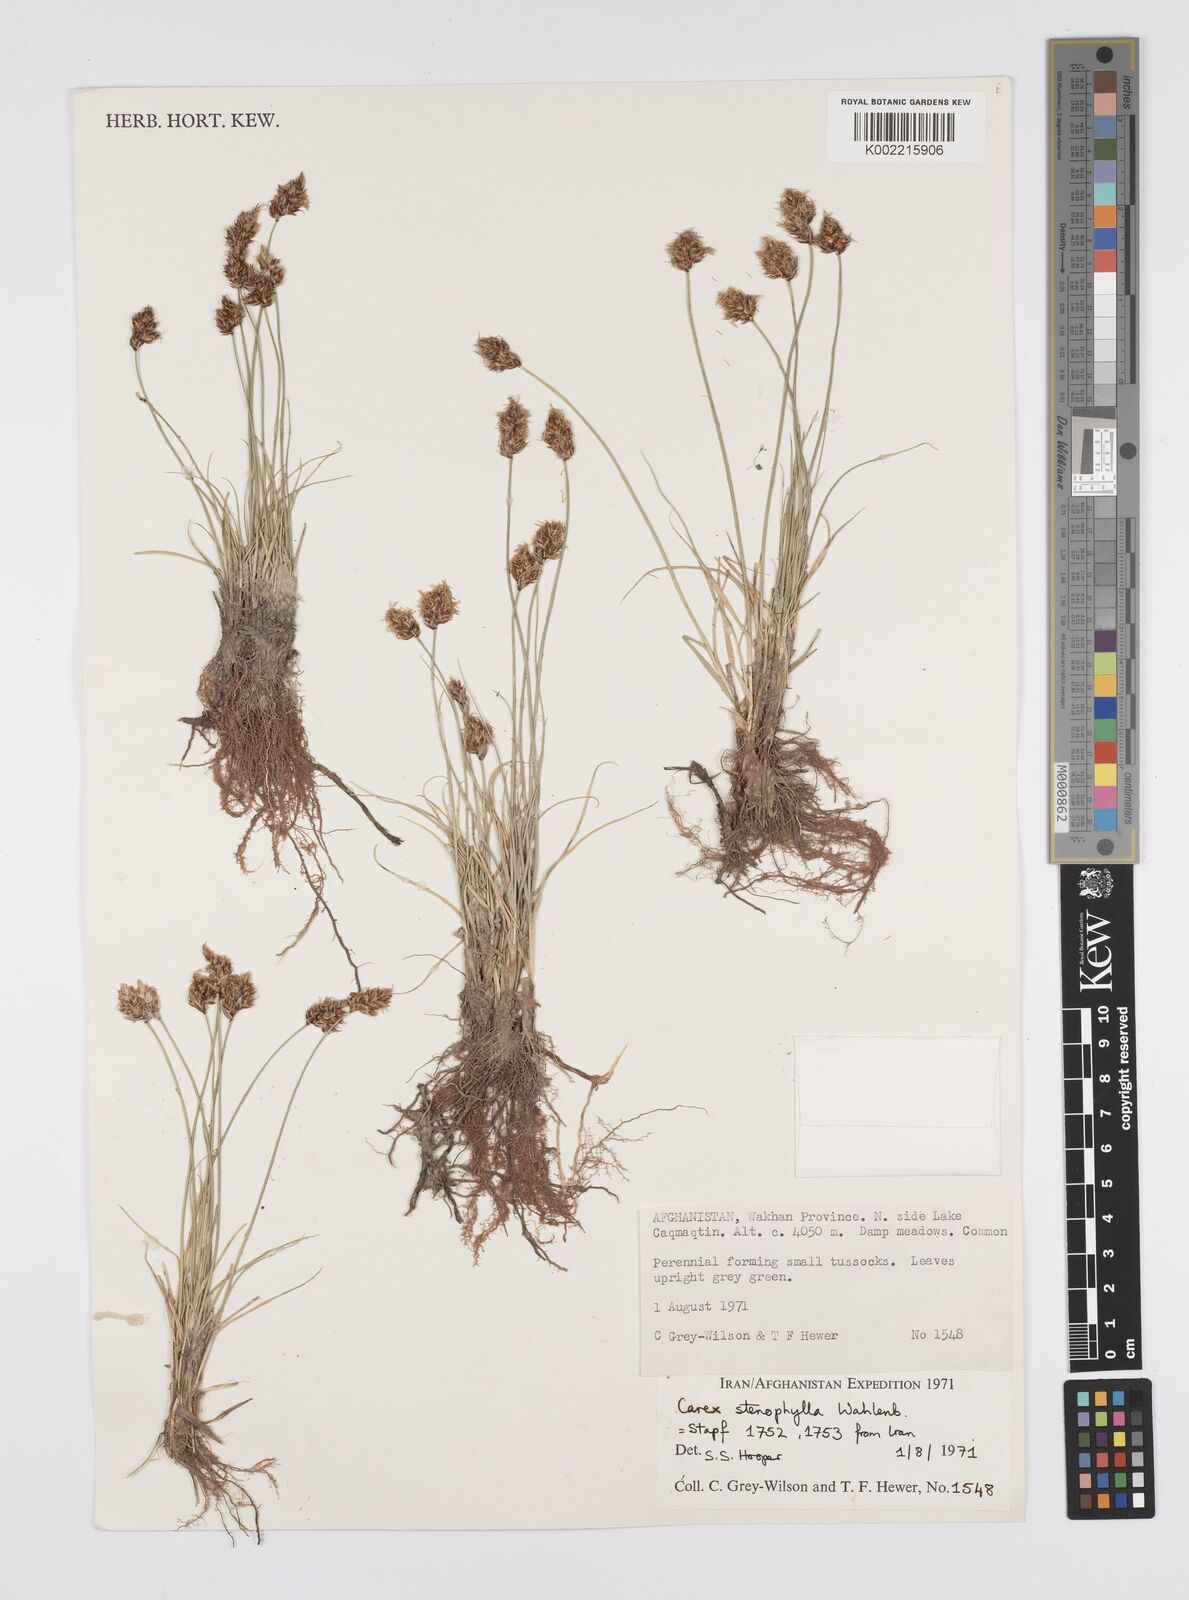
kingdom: Plantae
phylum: Tracheophyta
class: Liliopsida
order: Poales
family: Cyperaceae
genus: Carex
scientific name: Carex stenophylla
